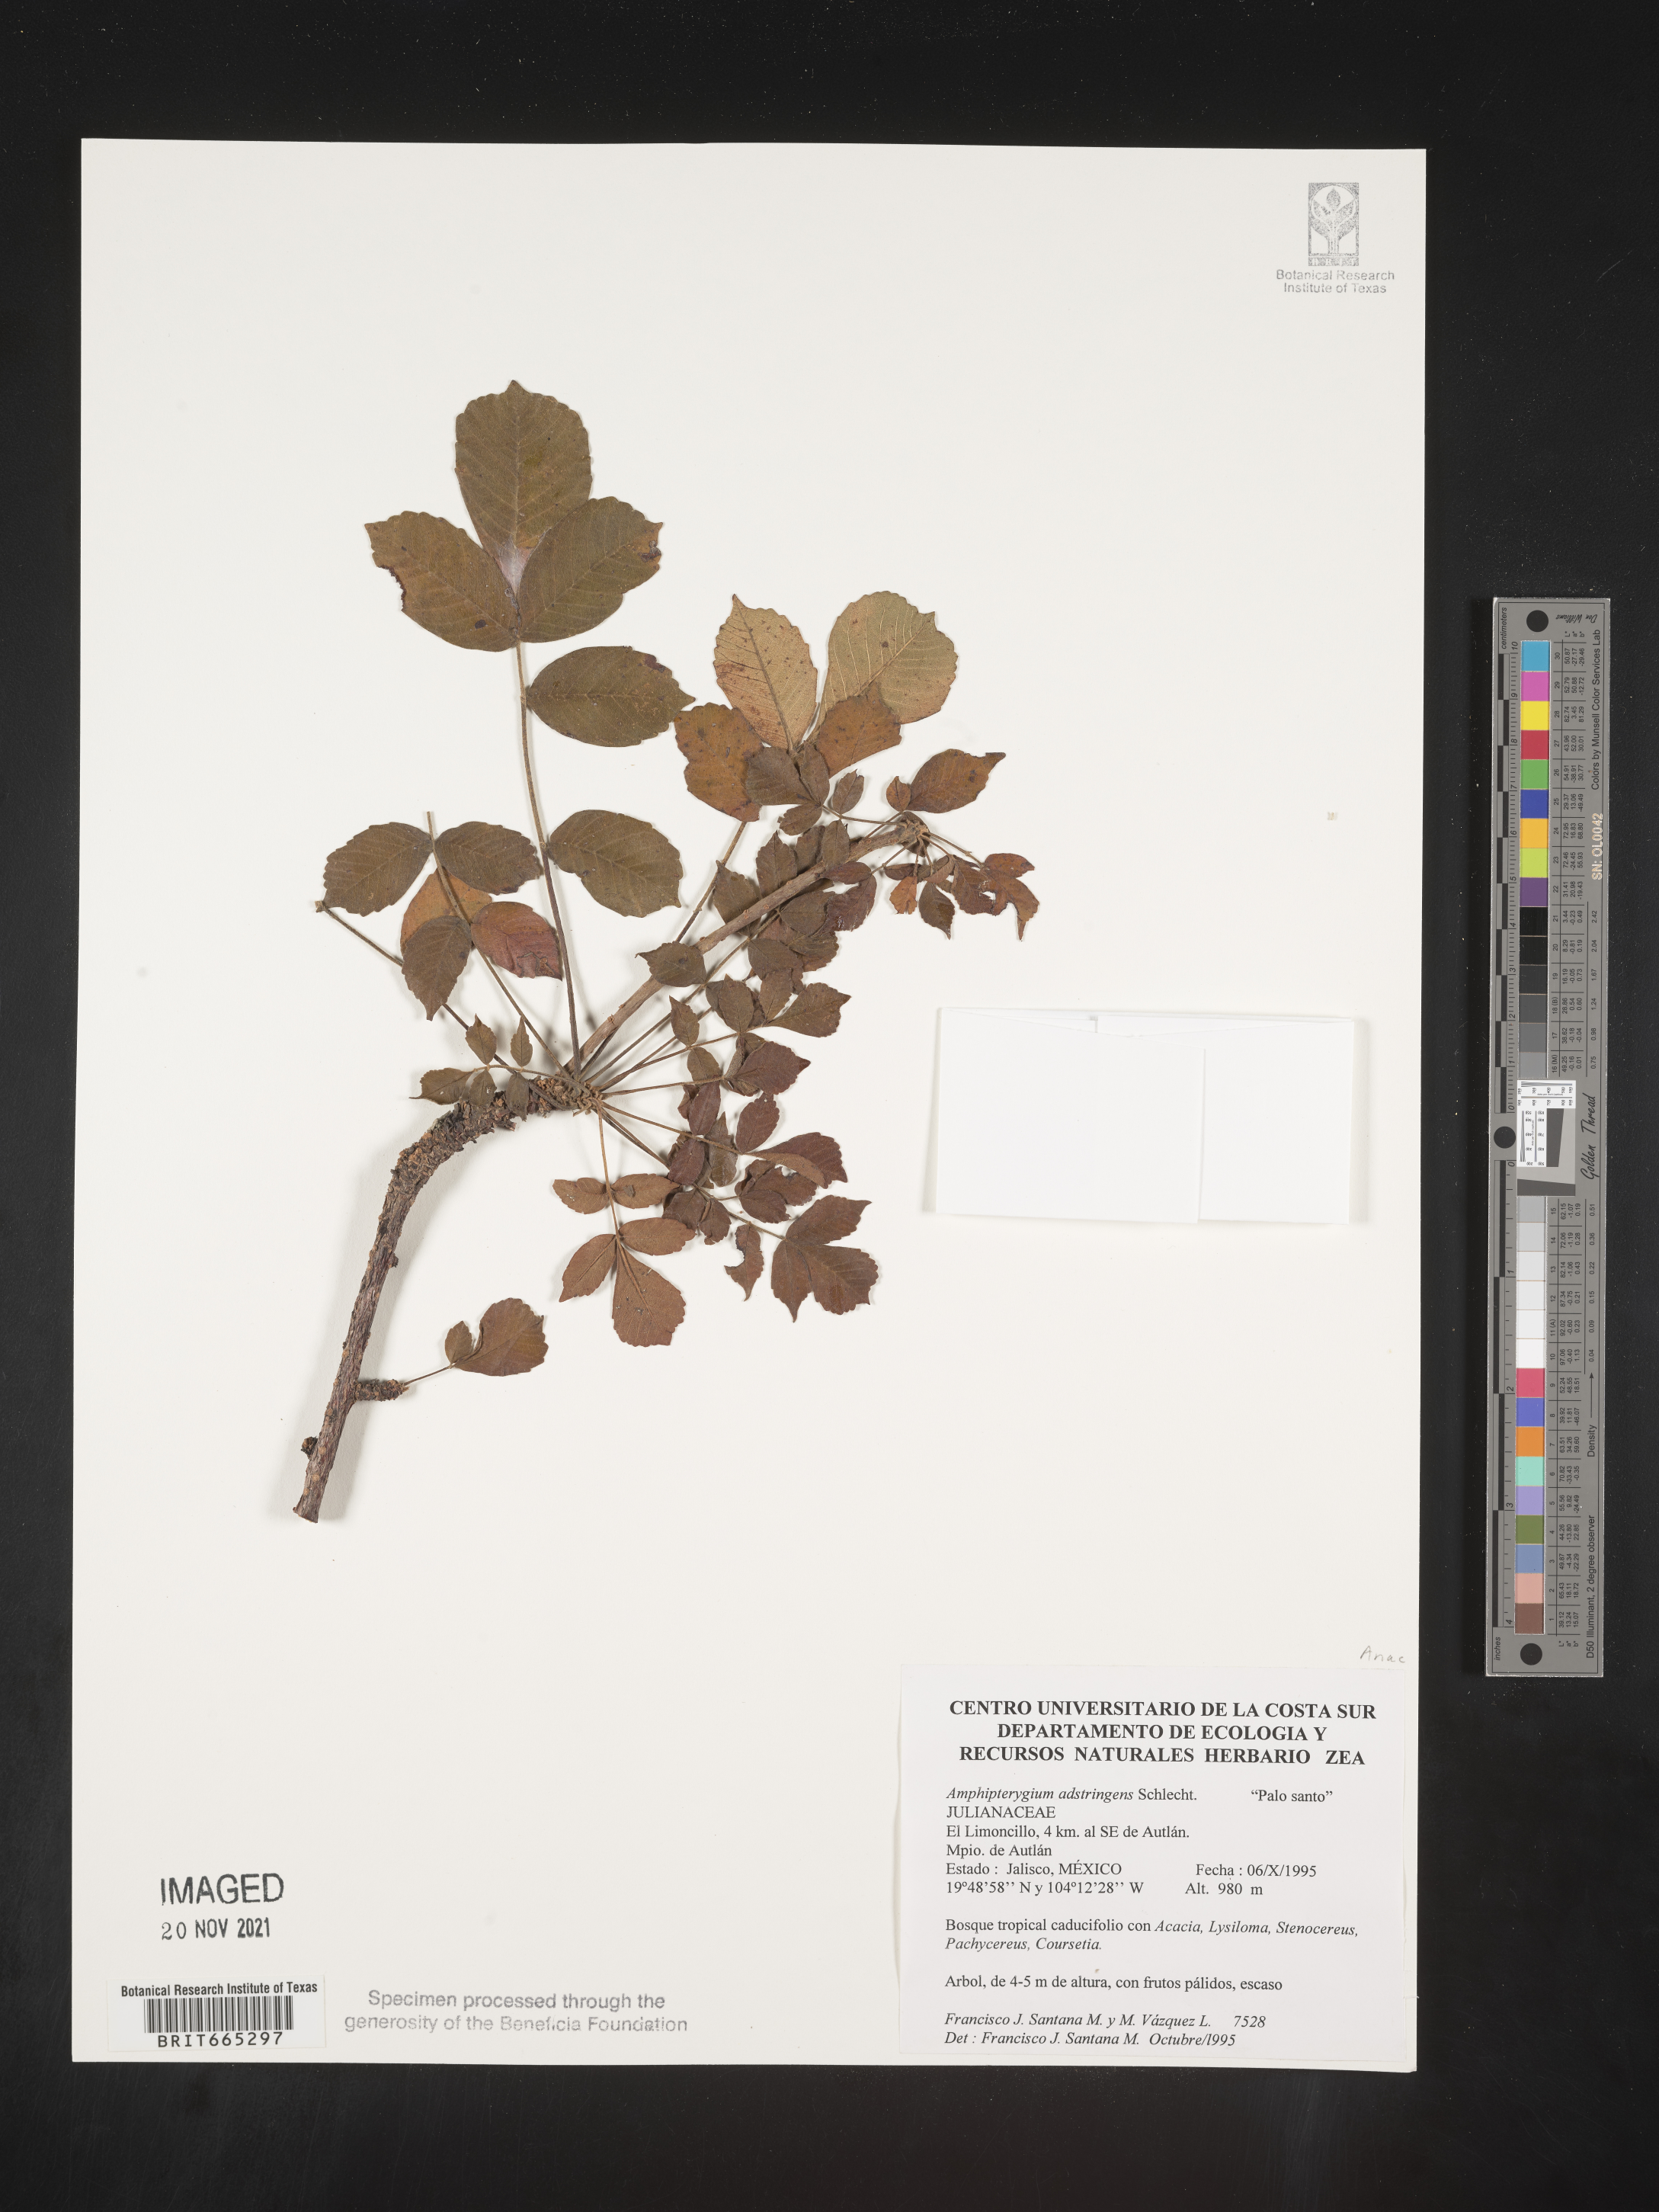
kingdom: Plantae
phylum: Tracheophyta
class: Magnoliopsida
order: Sapindales
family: Anacardiaceae
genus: Amphipterygium
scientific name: Amphipterygium
